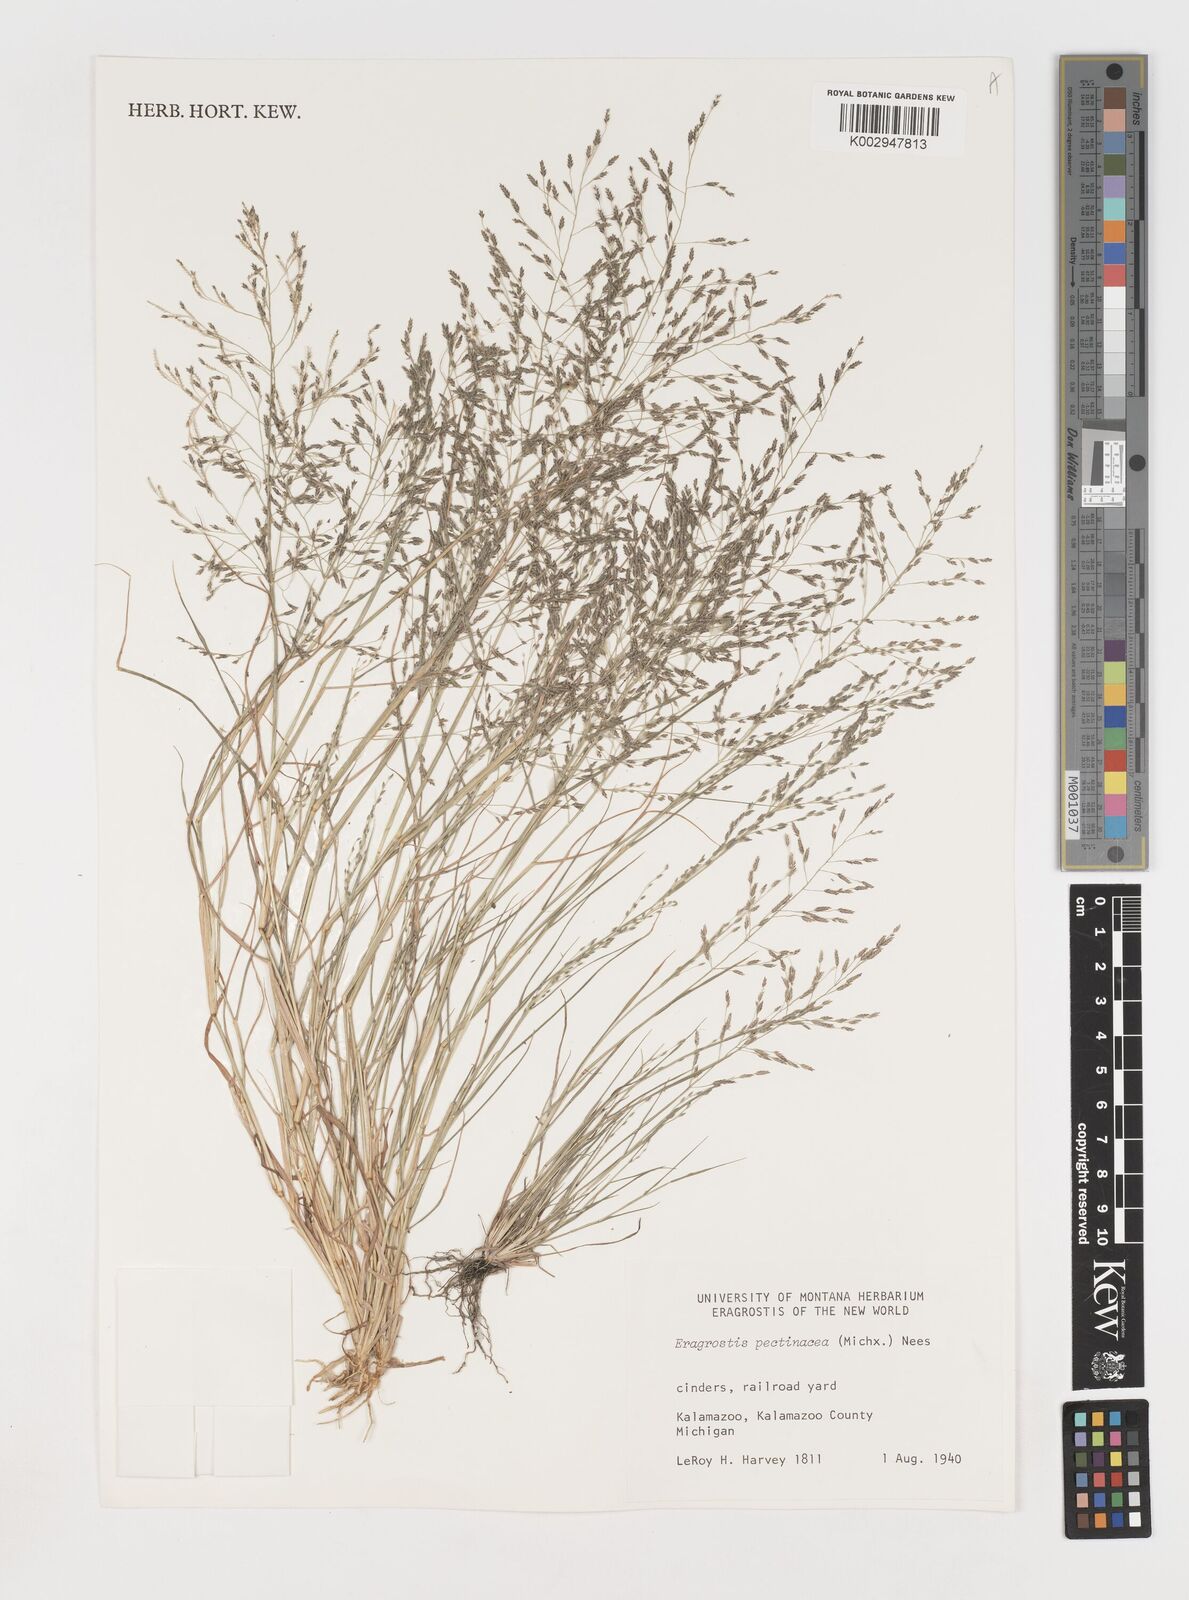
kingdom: Plantae
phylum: Tracheophyta
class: Liliopsida
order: Poales
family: Poaceae
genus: Eragrostis
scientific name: Eragrostis pectinacea
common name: Tufted lovegrass
